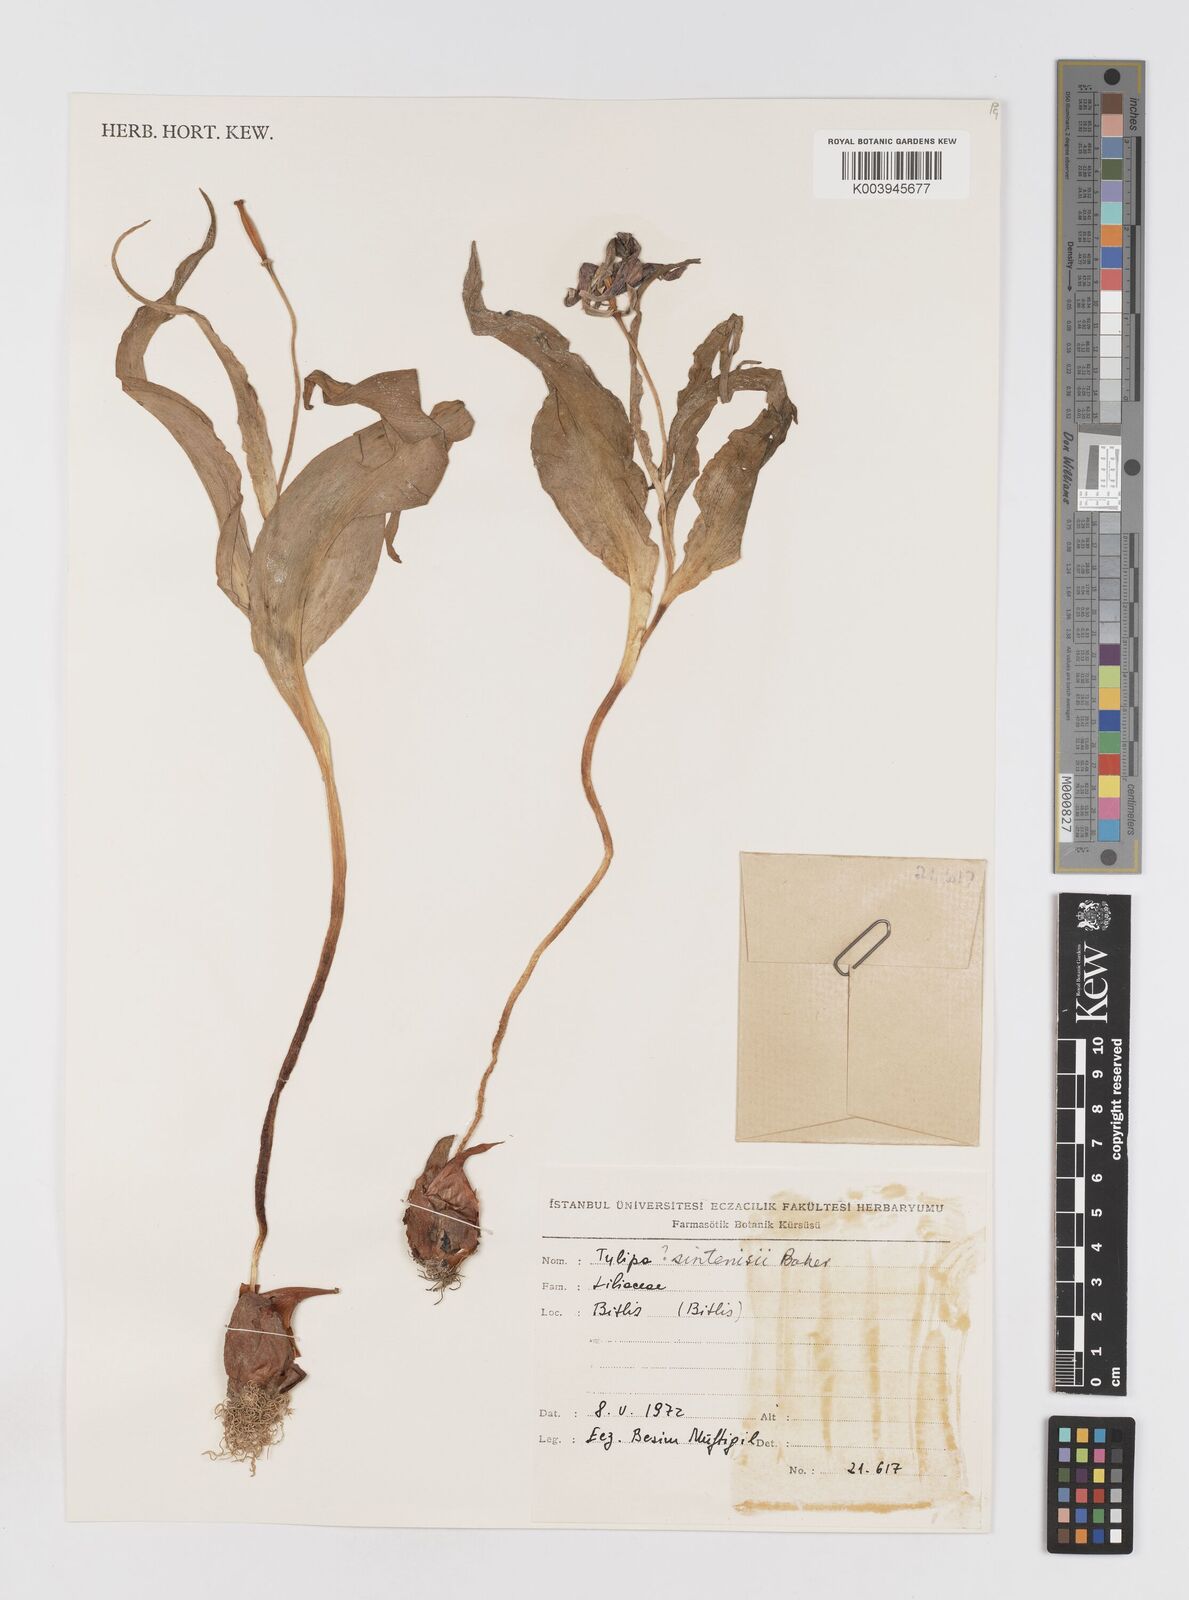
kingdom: Plantae
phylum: Tracheophyta
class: Liliopsida
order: Liliales
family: Liliaceae
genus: Tulipa
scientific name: Tulipa aleppensis
